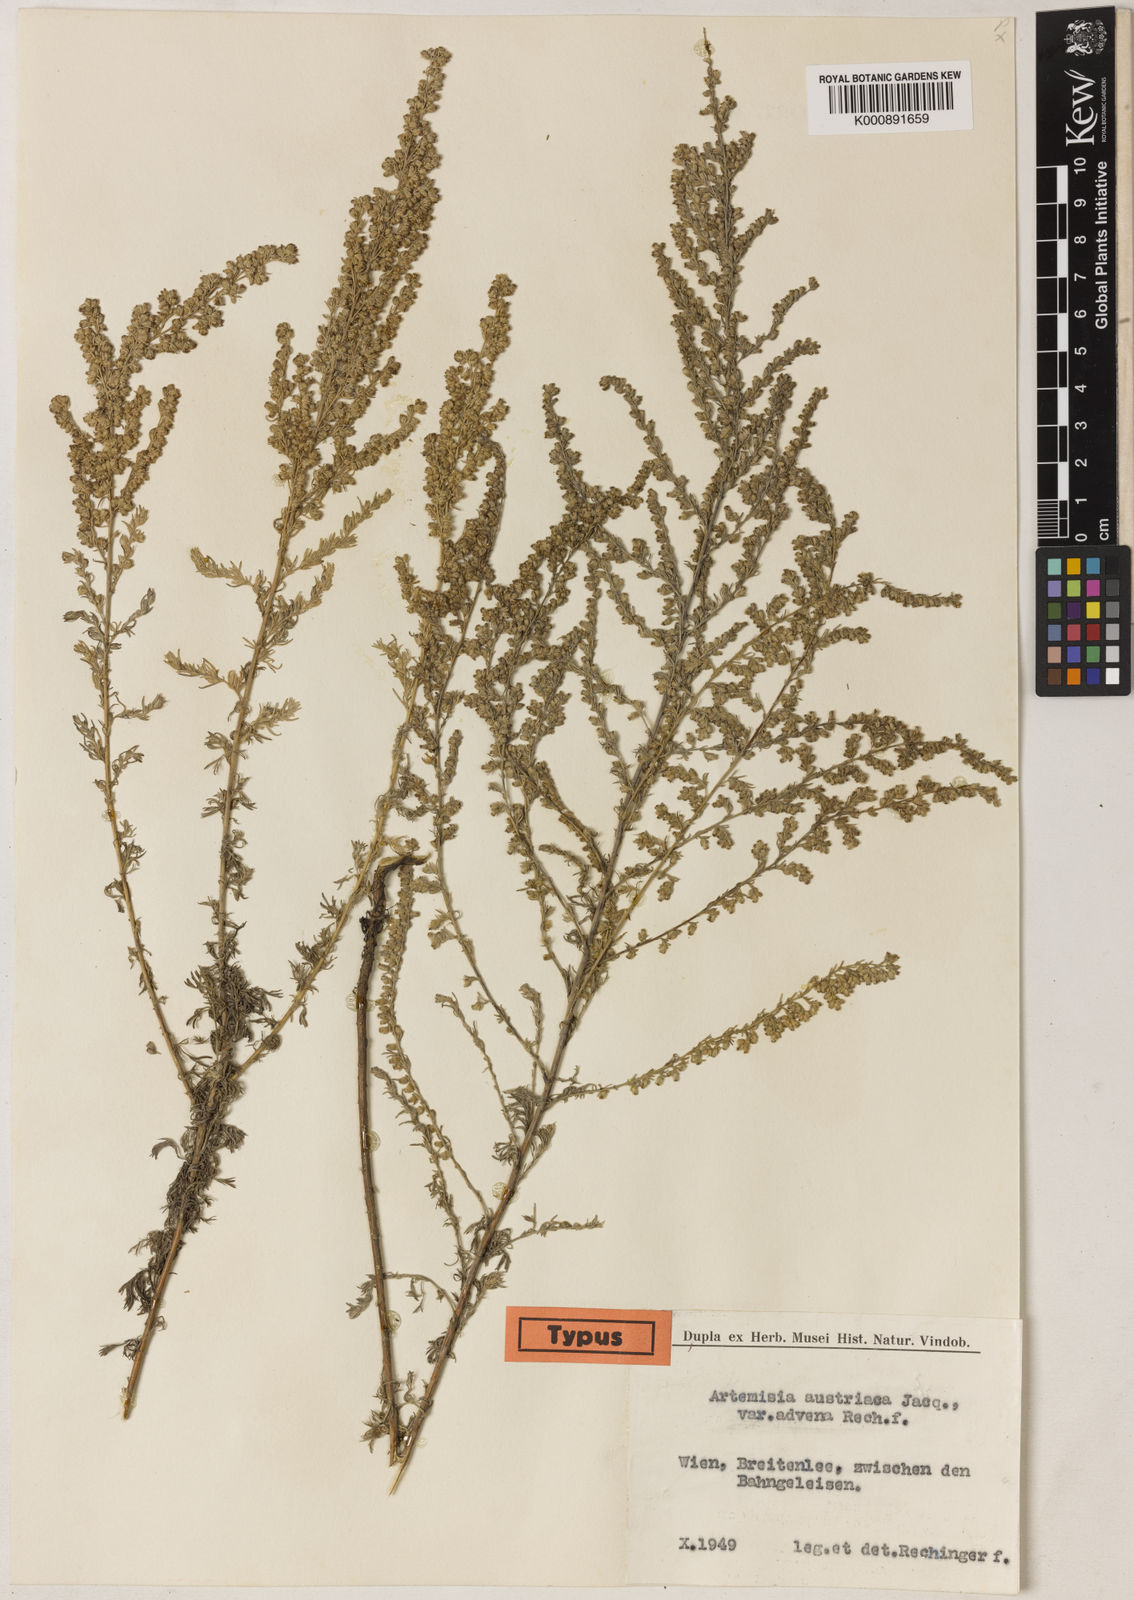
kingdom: Plantae
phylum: Tracheophyta
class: Magnoliopsida
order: Asterales
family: Asteraceae
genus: Artemisia
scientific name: Artemisia austriaca
